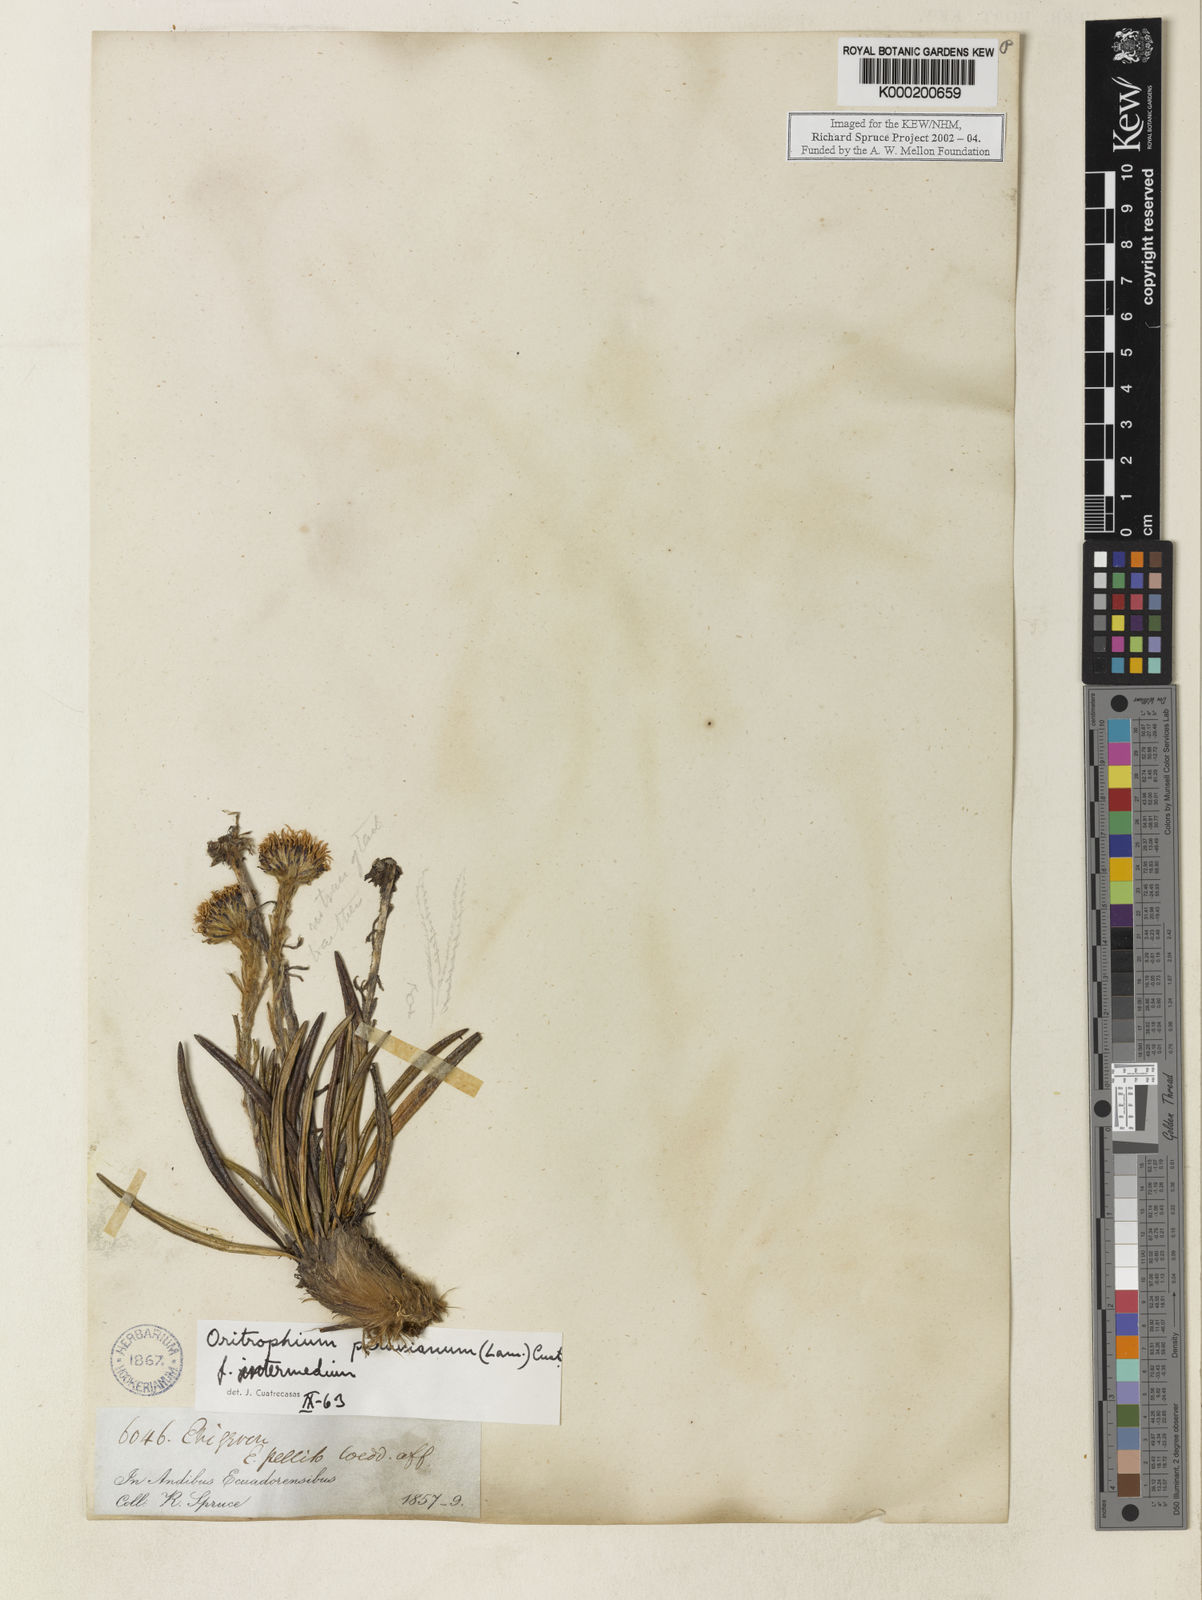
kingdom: Plantae
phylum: Tracheophyta
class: Magnoliopsida
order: Asterales
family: Asteraceae
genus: Oritrophium
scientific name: Oritrophium peruvianum
